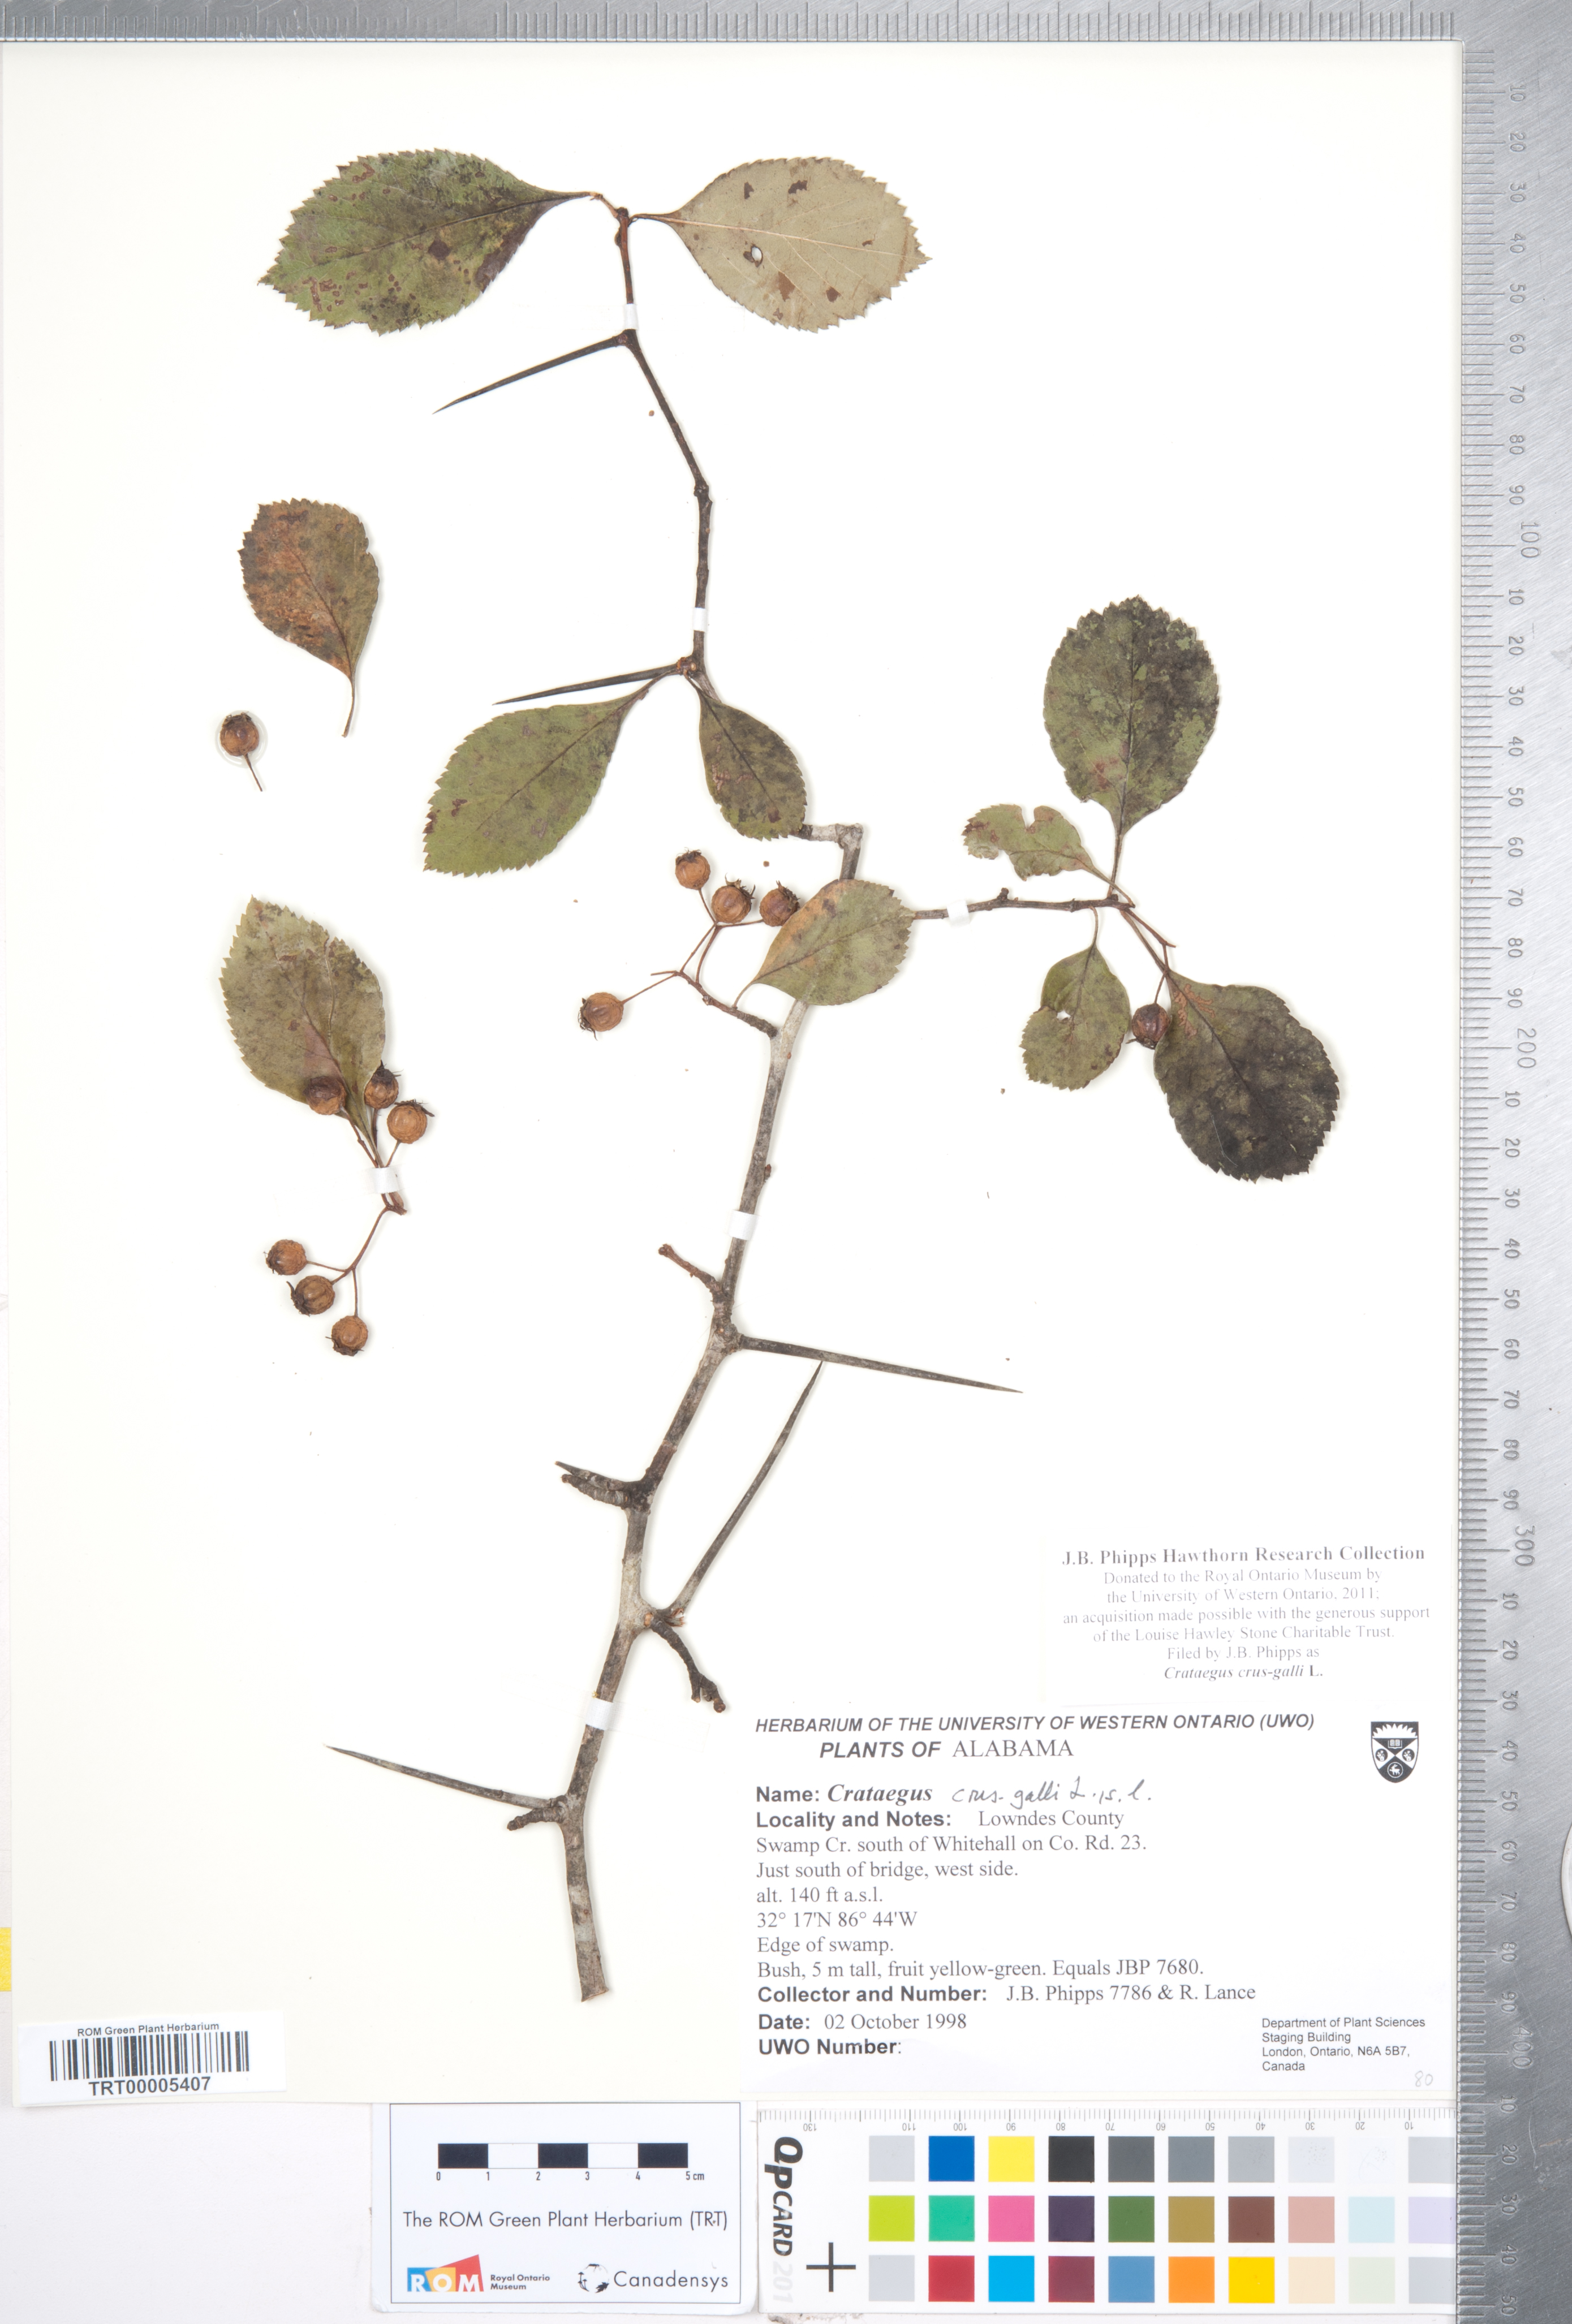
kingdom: Plantae
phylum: Tracheophyta
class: Magnoliopsida
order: Rosales
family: Rosaceae
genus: Crataegus
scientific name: Crataegus crus-galli
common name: Cockspurthorn
